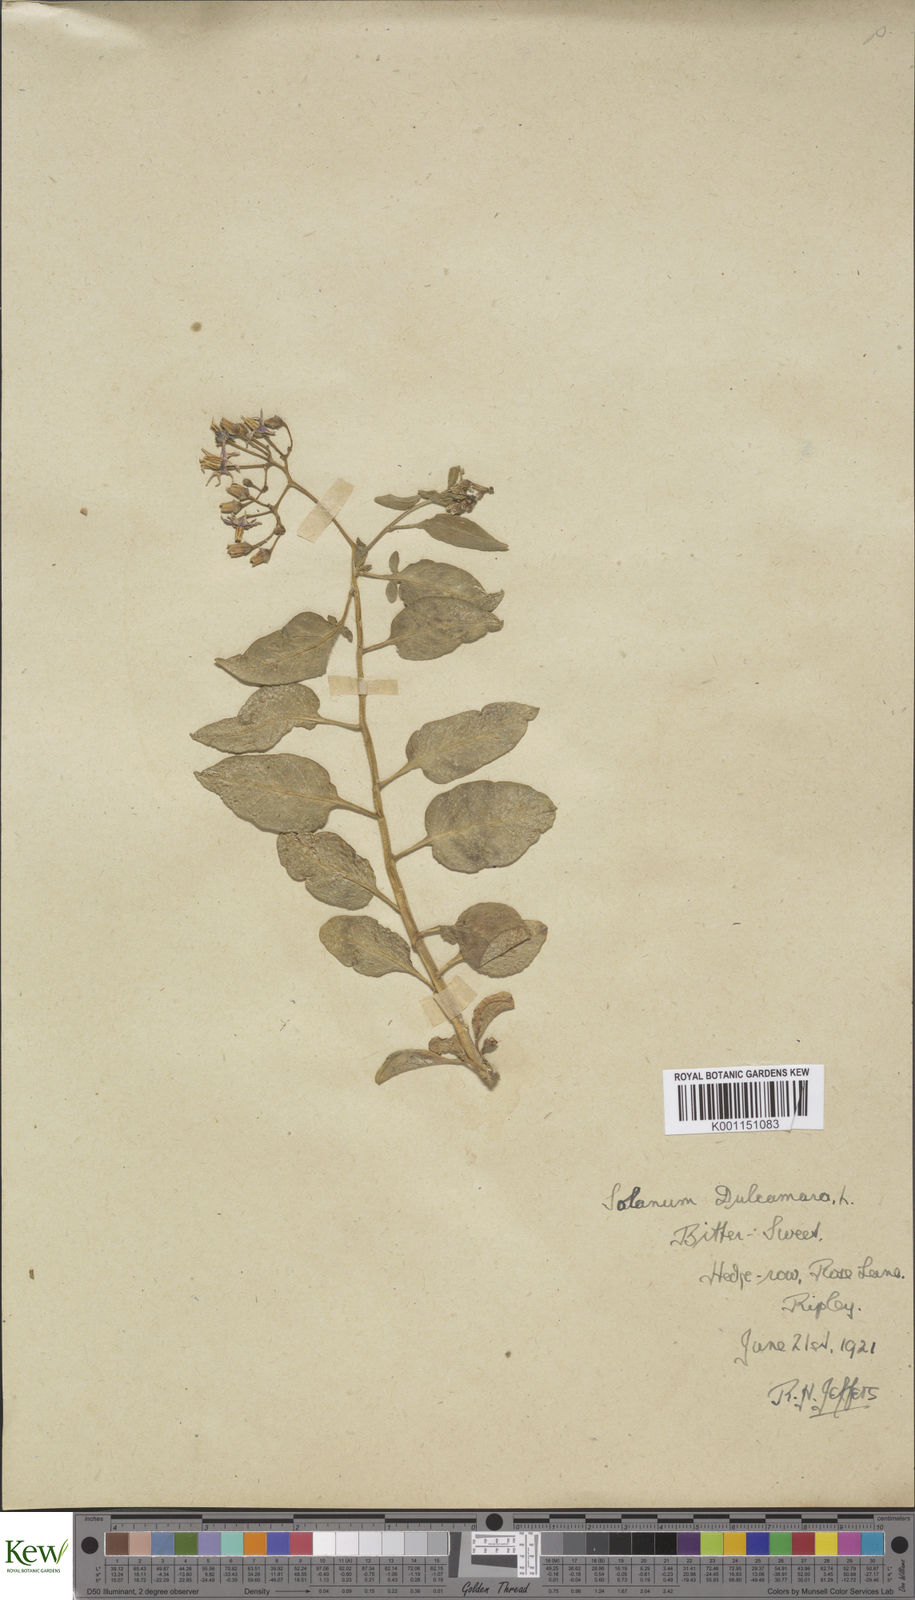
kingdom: Plantae
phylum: Tracheophyta
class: Magnoliopsida
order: Solanales
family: Solanaceae
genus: Solanum
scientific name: Solanum dulcamara
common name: Climbing nightshade
